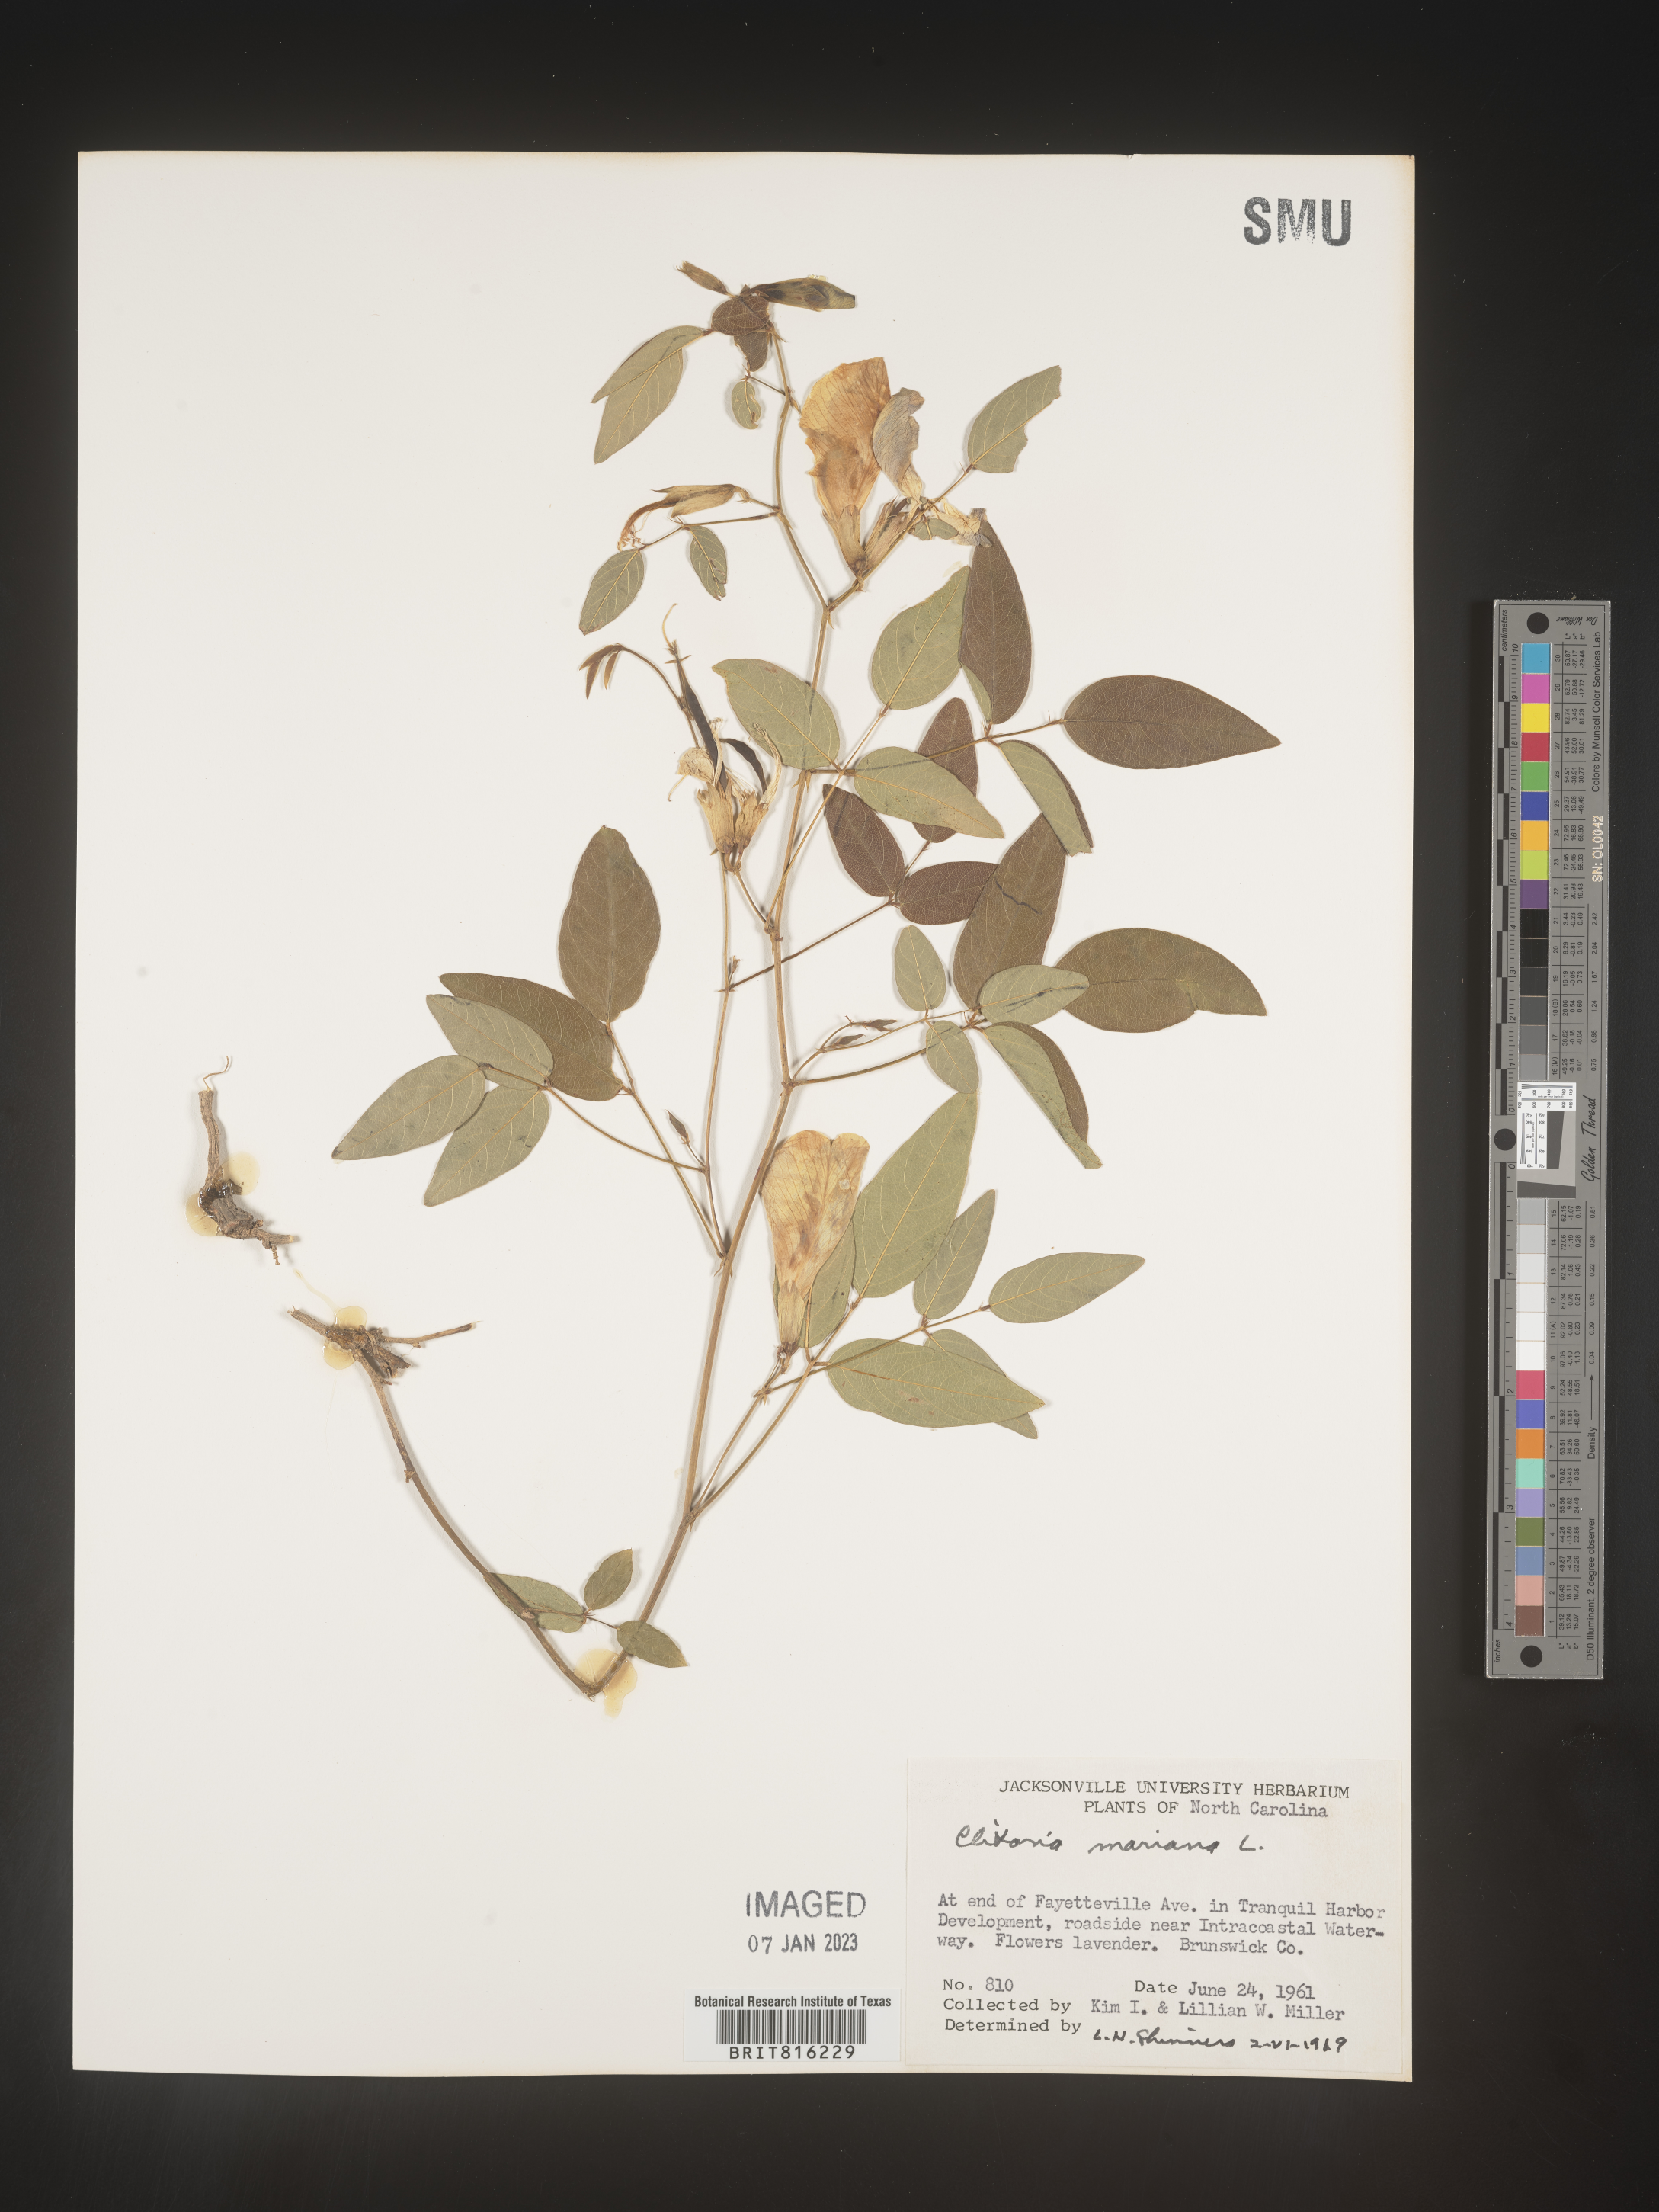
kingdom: Plantae
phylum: Tracheophyta
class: Magnoliopsida
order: Fabales
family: Fabaceae
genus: Clitoria
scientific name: Clitoria mariana
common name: Butterfly-pea
